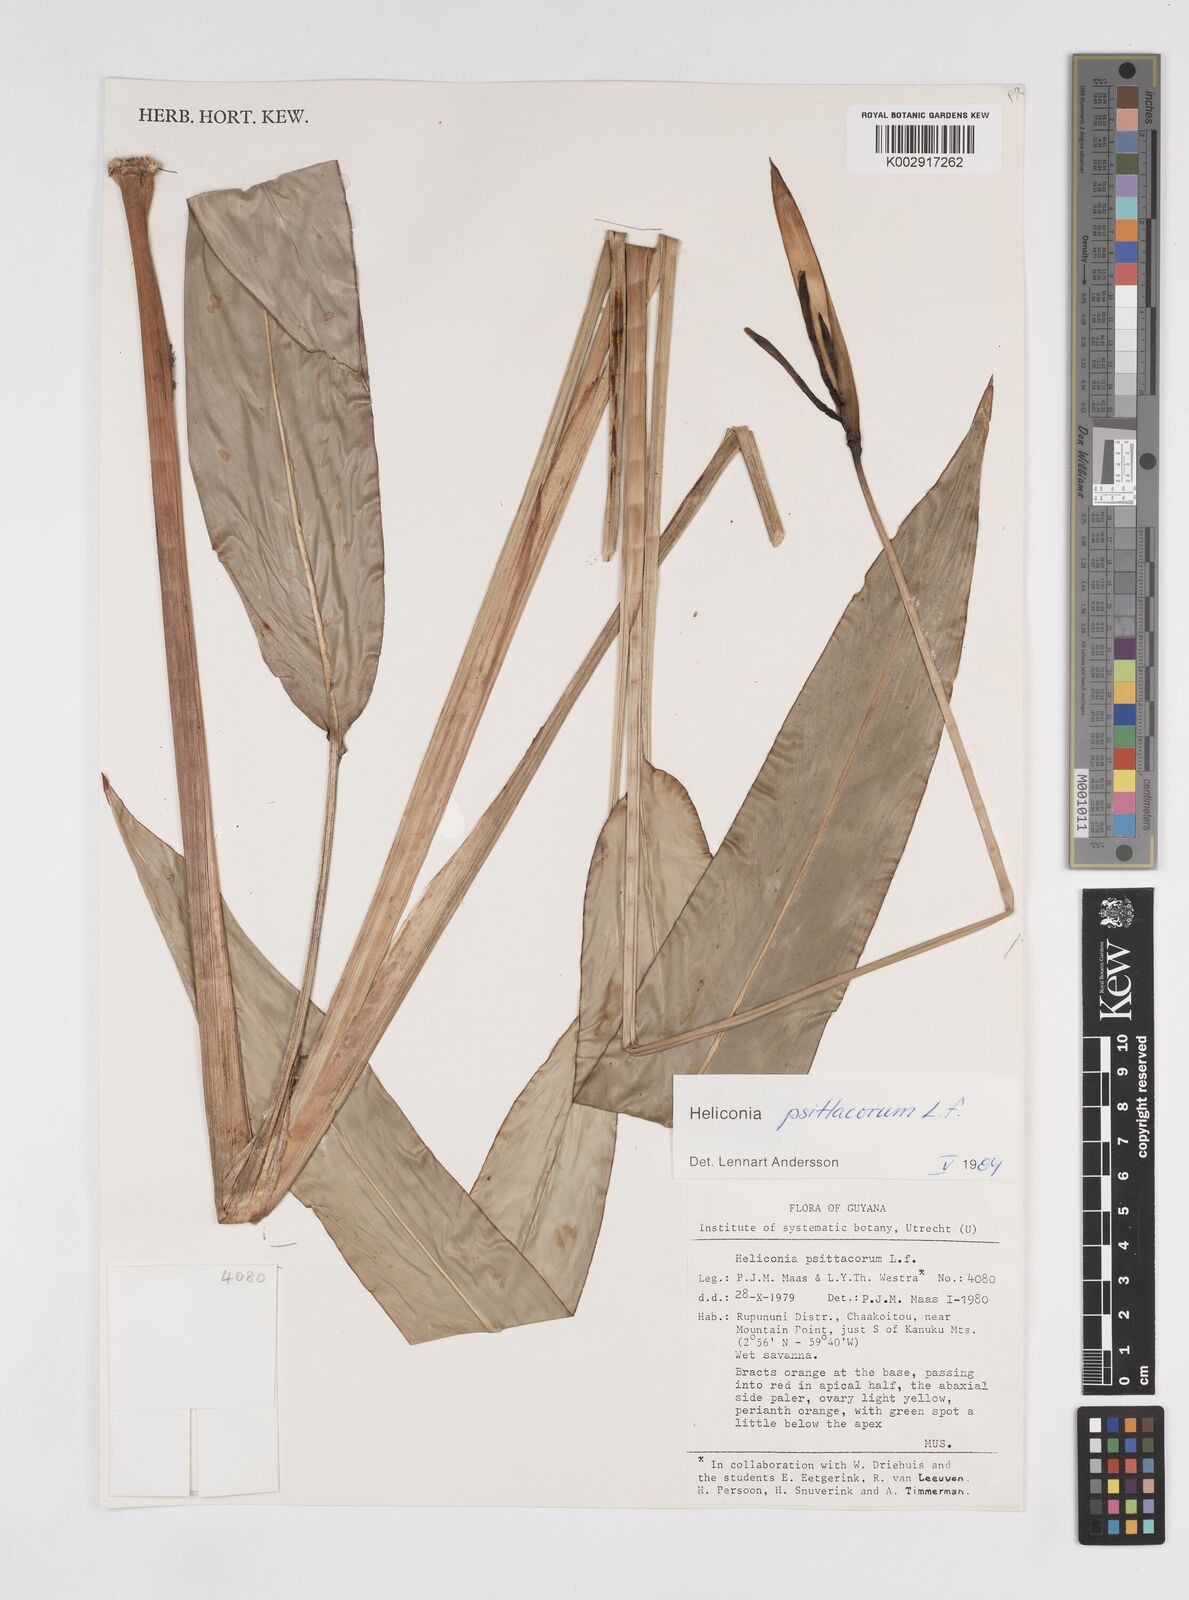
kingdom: Plantae
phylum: Tracheophyta
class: Liliopsida
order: Zingiberales
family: Heliconiaceae
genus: Heliconia
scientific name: Heliconia psittacorum
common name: Parrot's-flower
